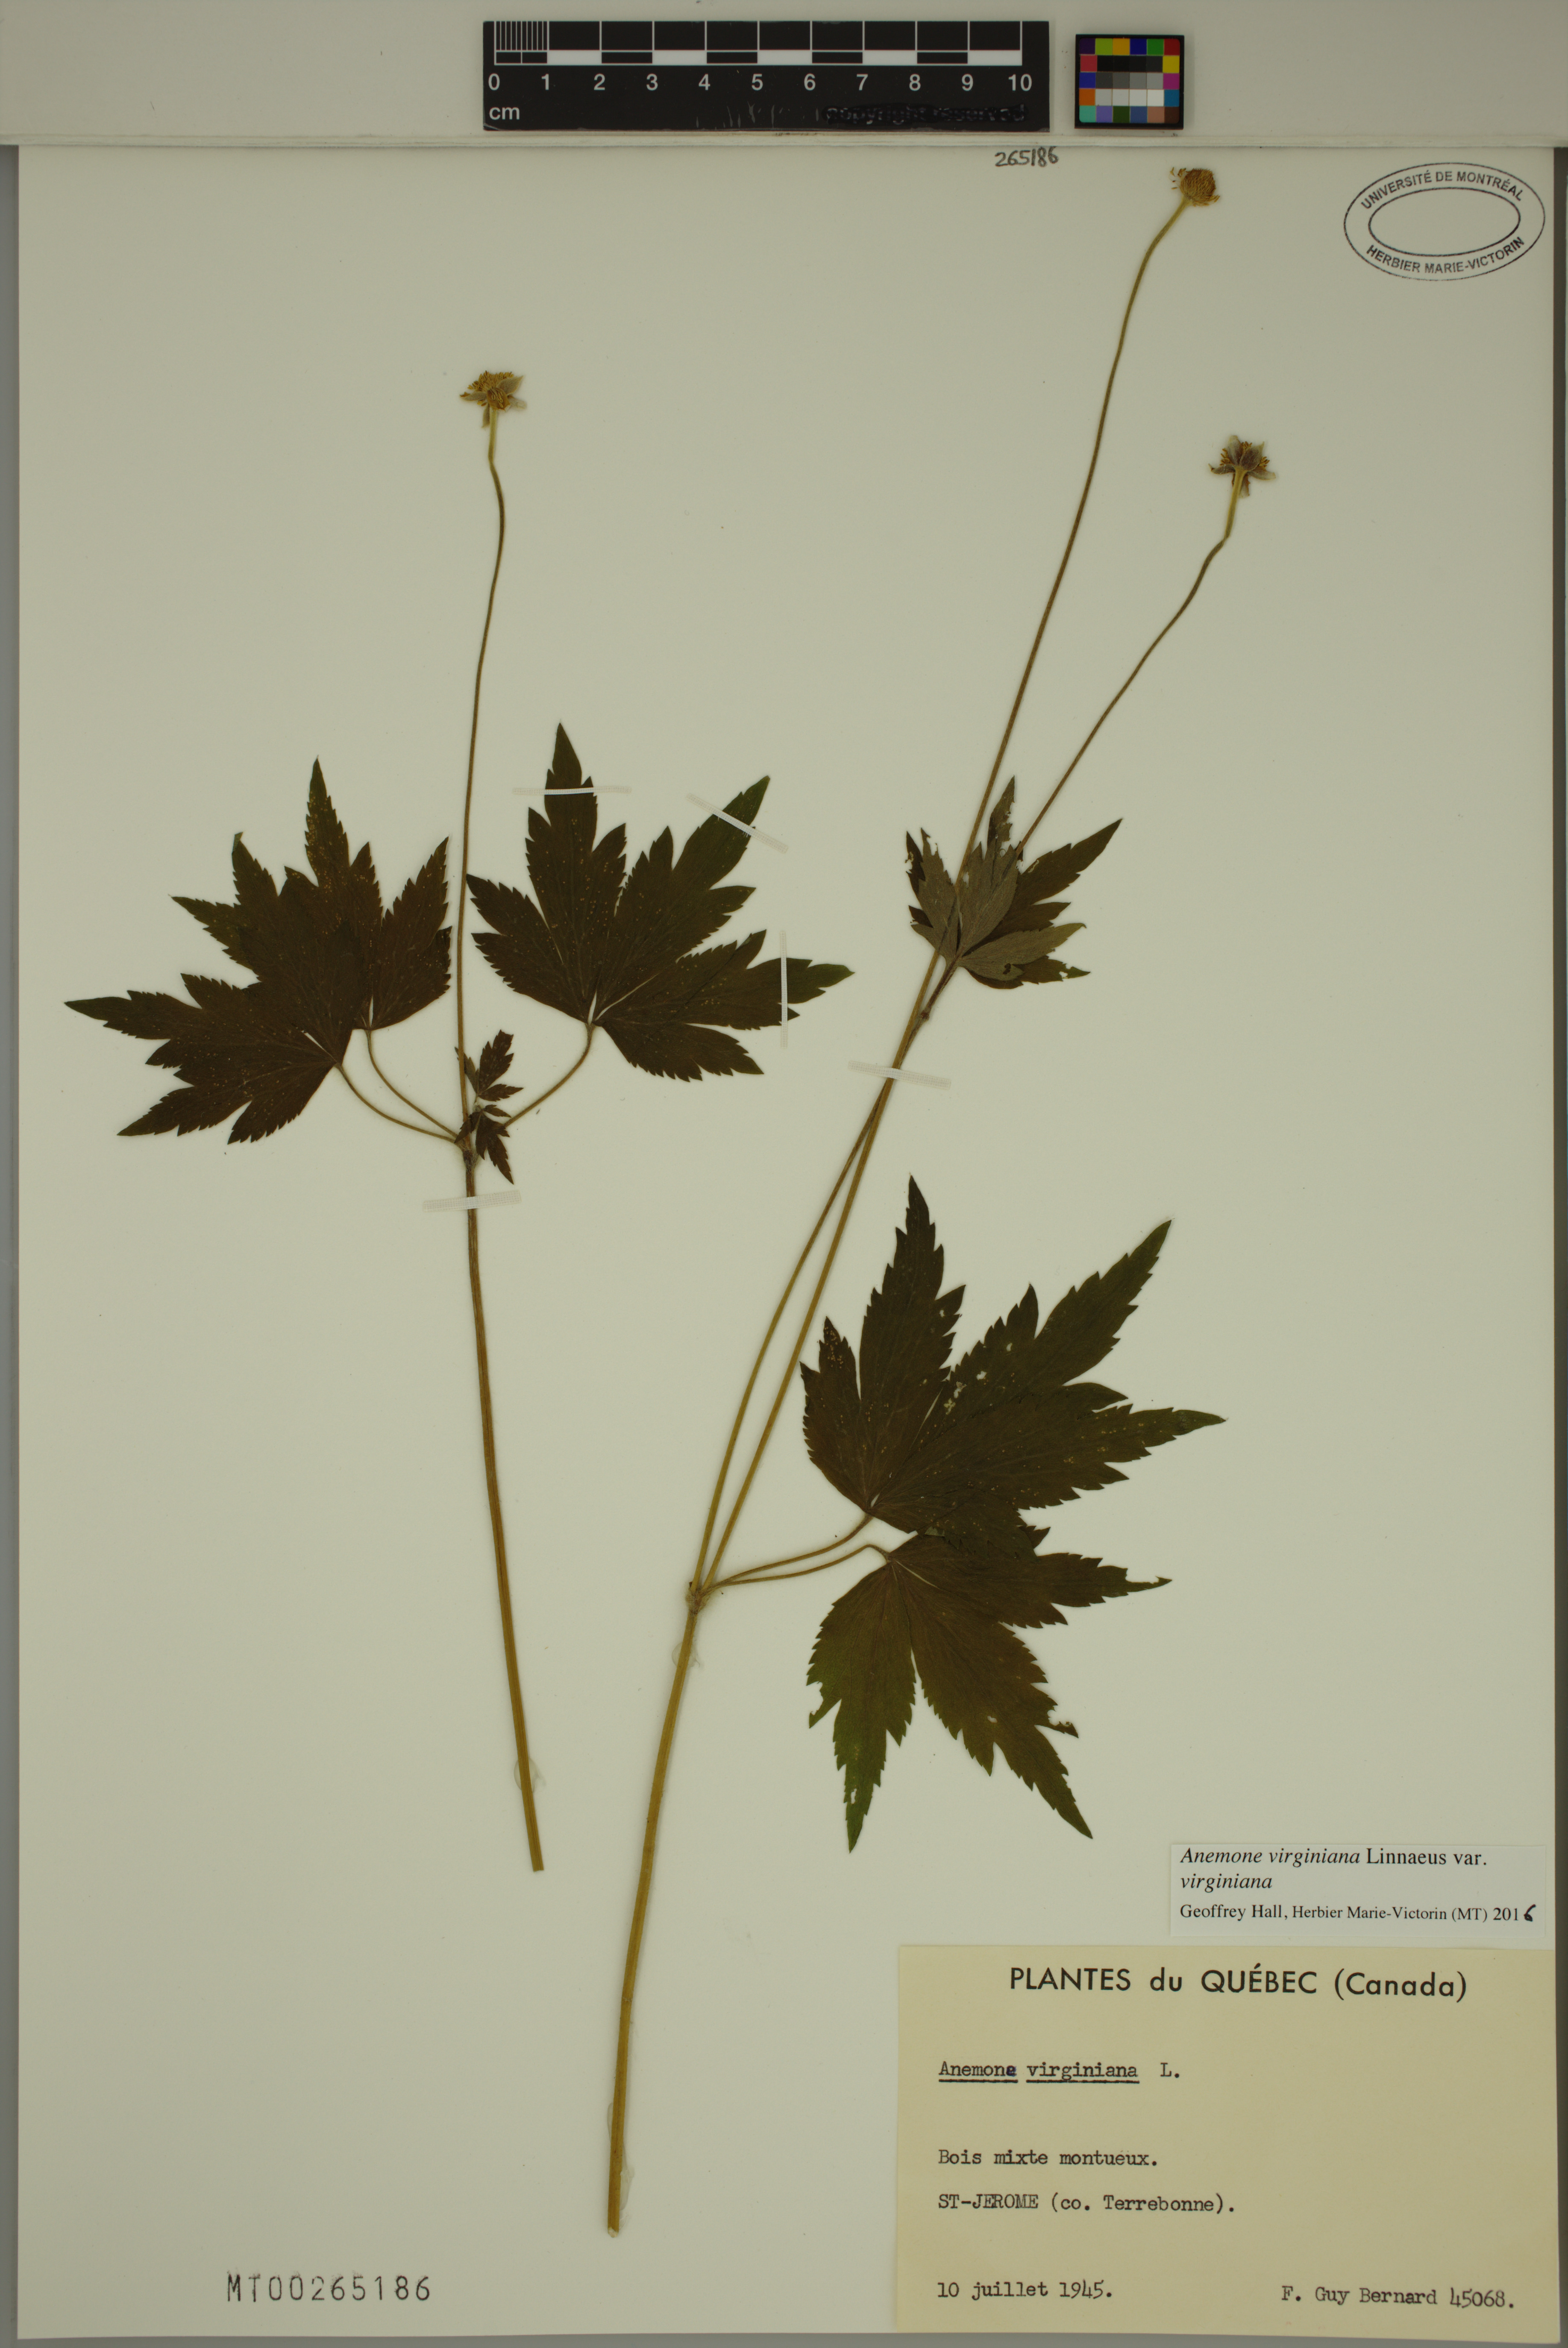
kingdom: Plantae
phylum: Tracheophyta
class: Magnoliopsida
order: Ranunculales
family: Ranunculaceae
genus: Anemone
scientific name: Anemone virginiana
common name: Tall anemone
